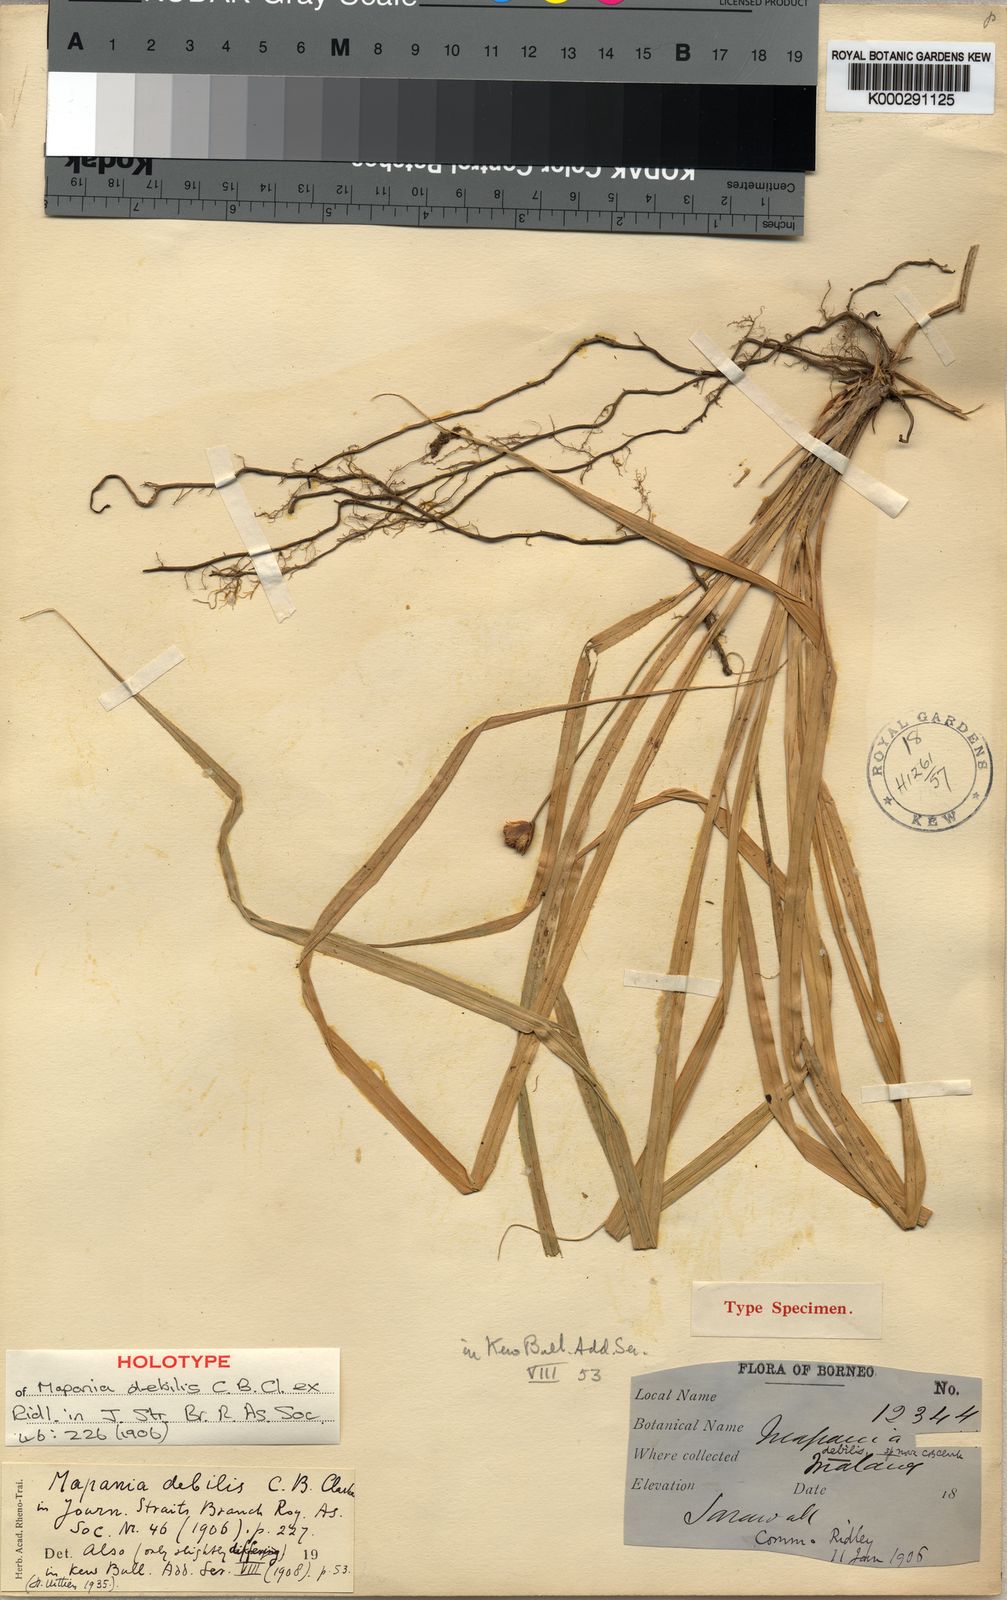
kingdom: Plantae
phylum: Tracheophyta
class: Liliopsida
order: Poales
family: Cyperaceae
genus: Mapania
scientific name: Mapania
